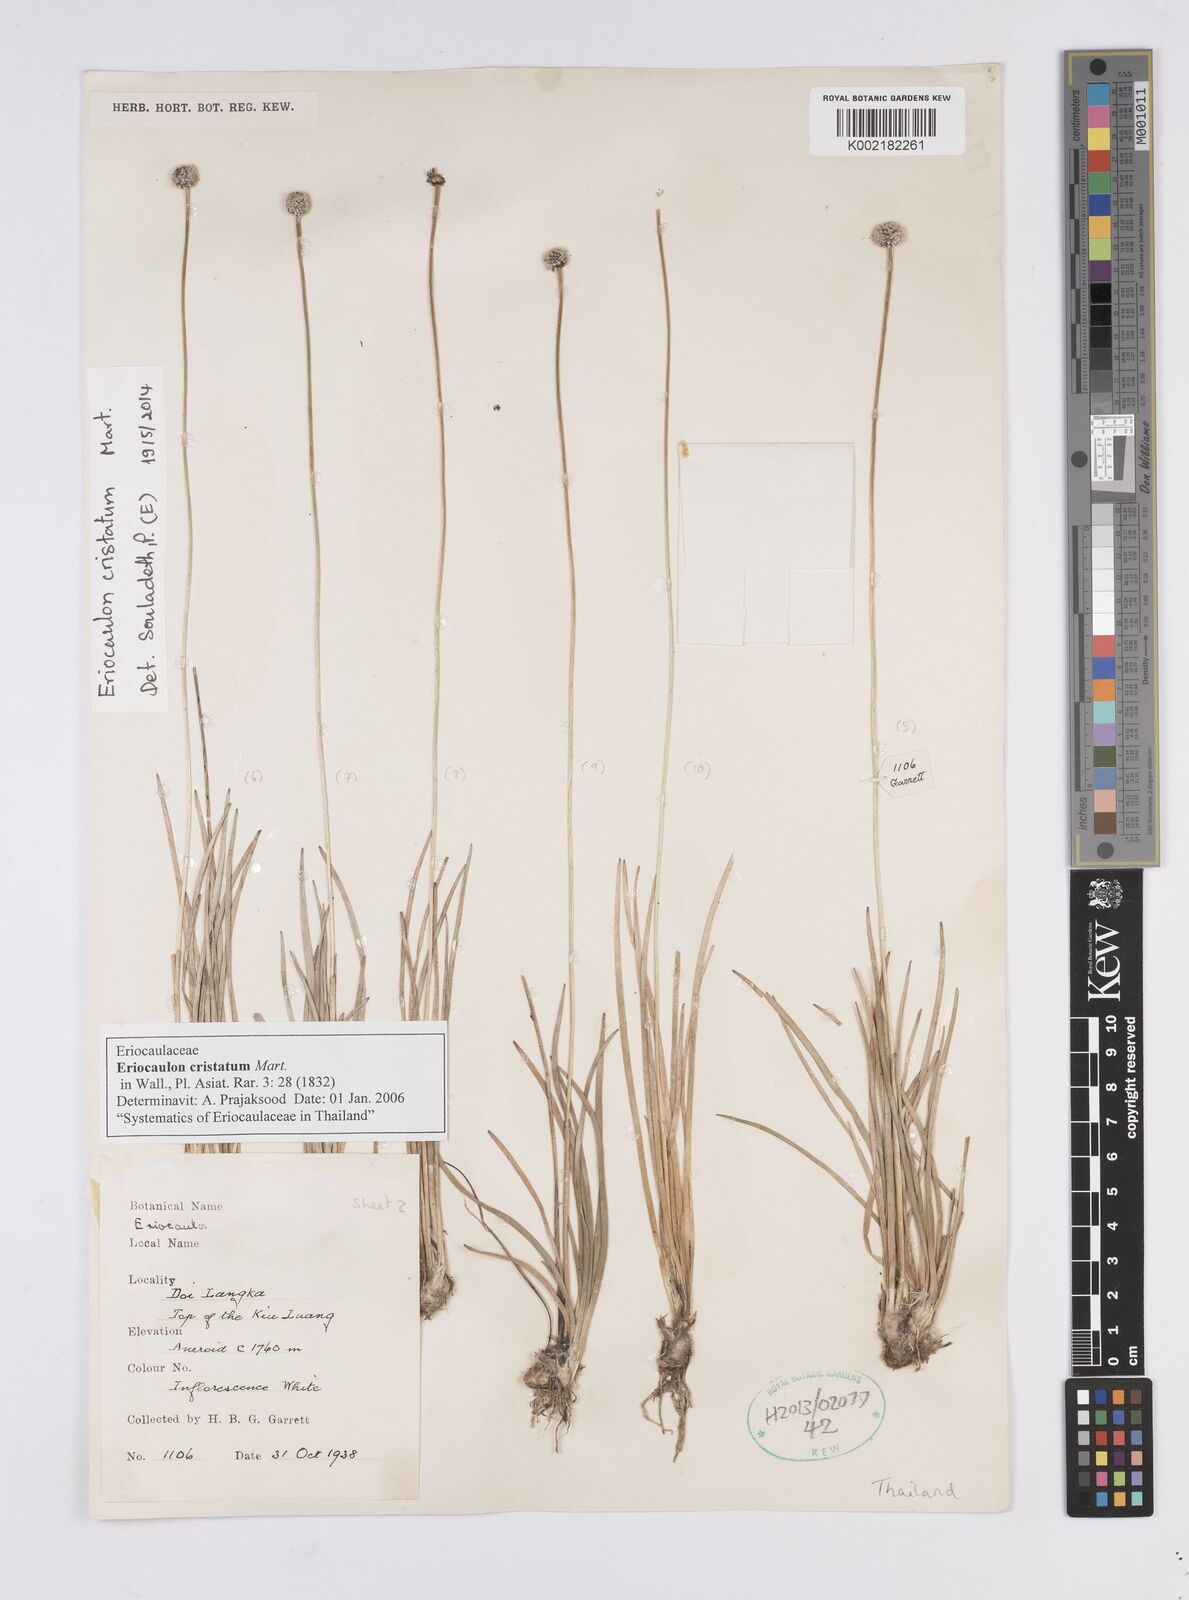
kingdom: Plantae
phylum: Tracheophyta
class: Liliopsida
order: Poales
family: Eriocaulaceae
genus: Eriocaulon
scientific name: Eriocaulon cristatum
